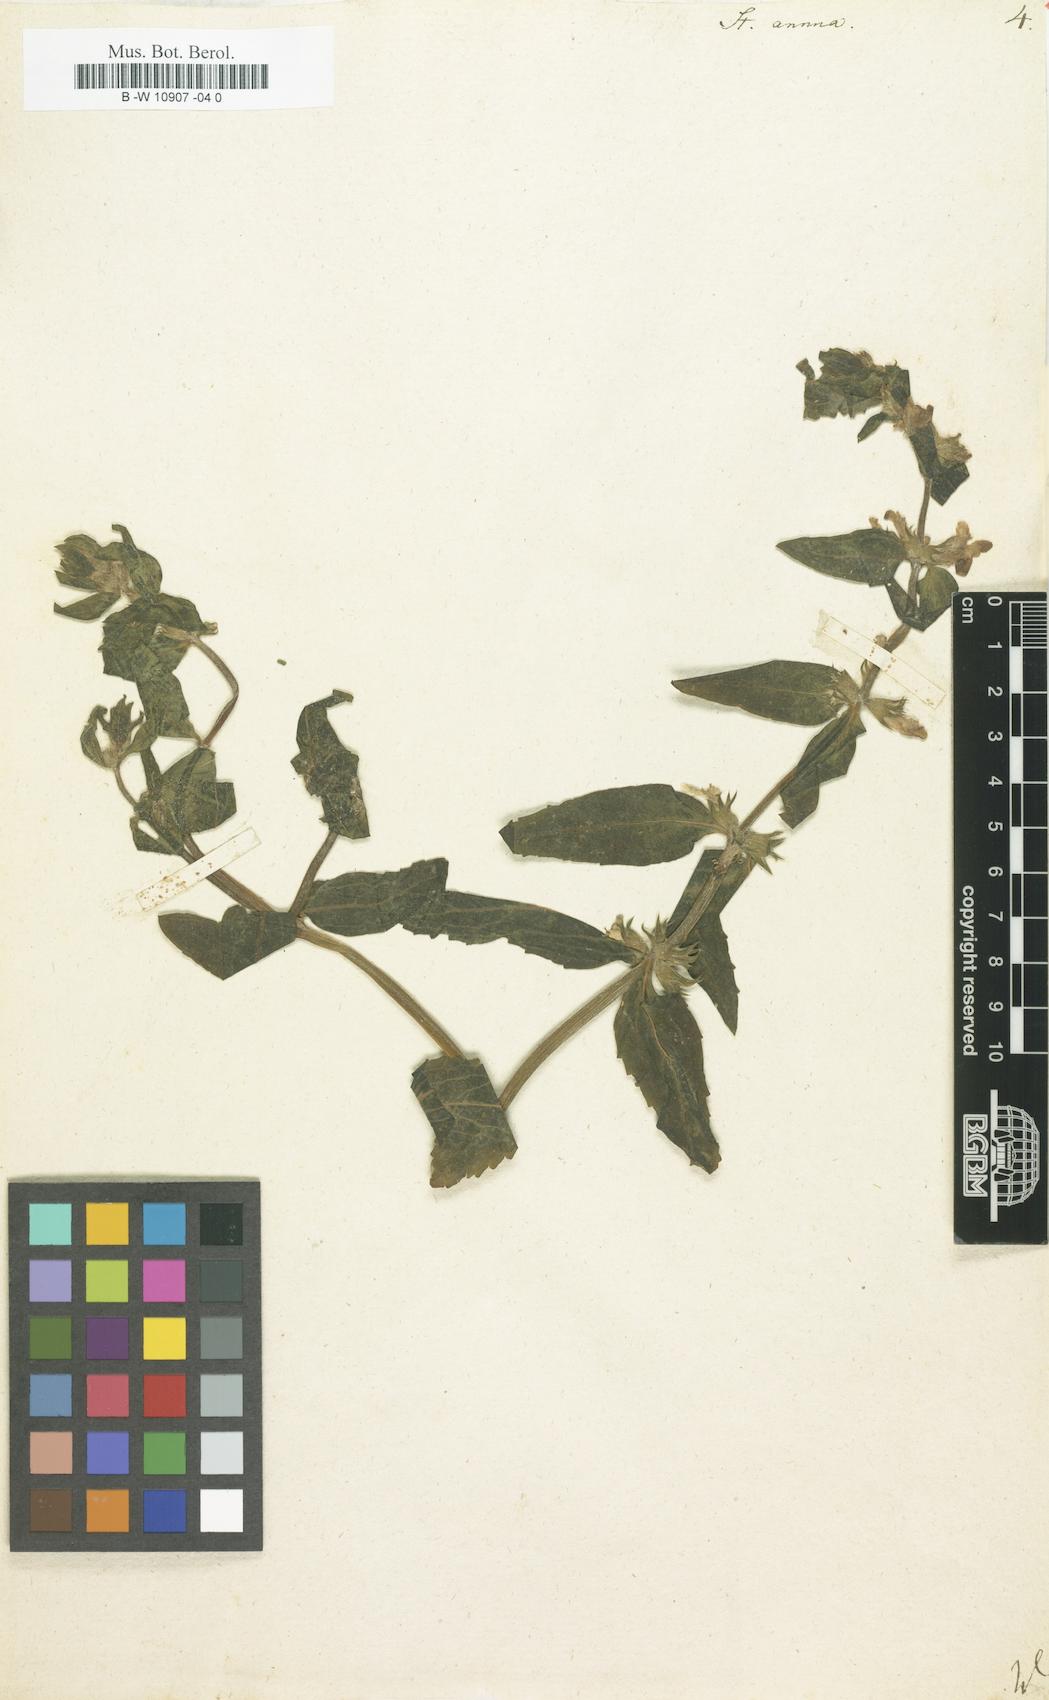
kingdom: Plantae
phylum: Tracheophyta
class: Magnoliopsida
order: Lamiales
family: Lamiaceae
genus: Stachys
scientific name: Stachys annua
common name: Annual yellow-woundwort
